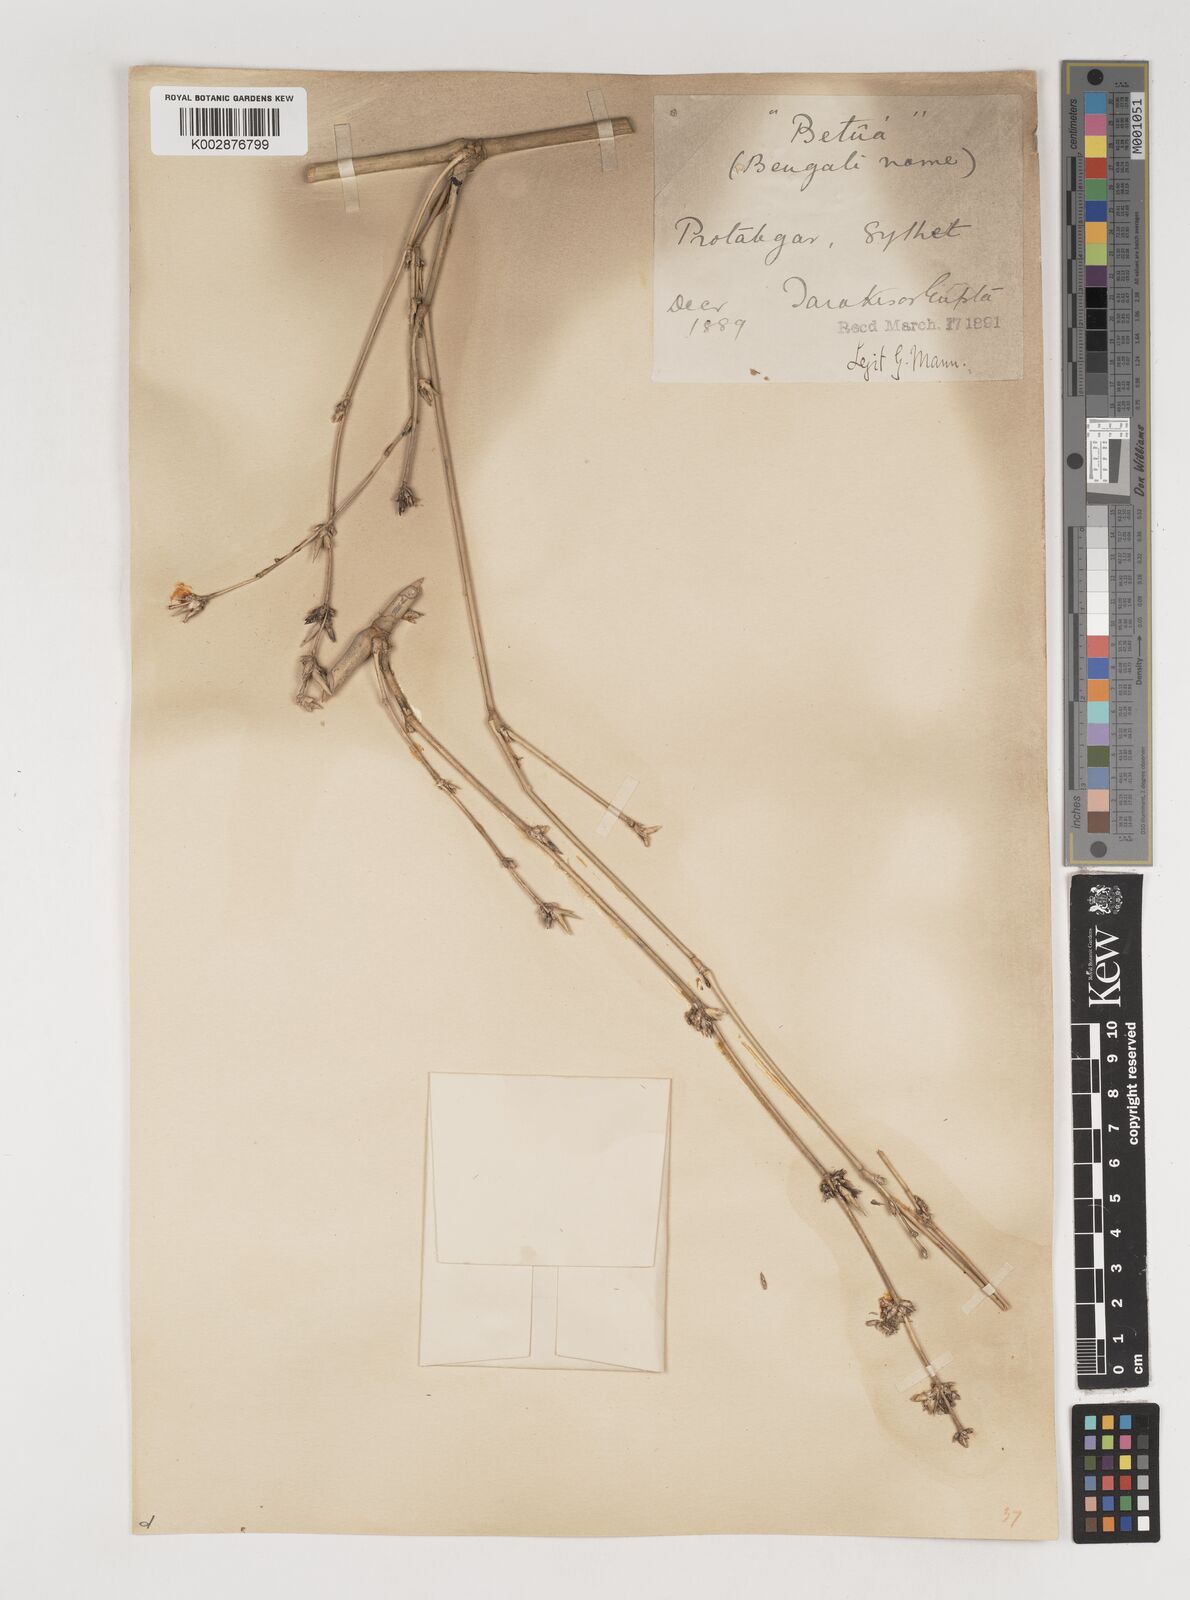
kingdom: Plantae
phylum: Tracheophyta
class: Liliopsida
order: Poales
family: Poaceae
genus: Bambusa
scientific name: Bambusa polymorpha
